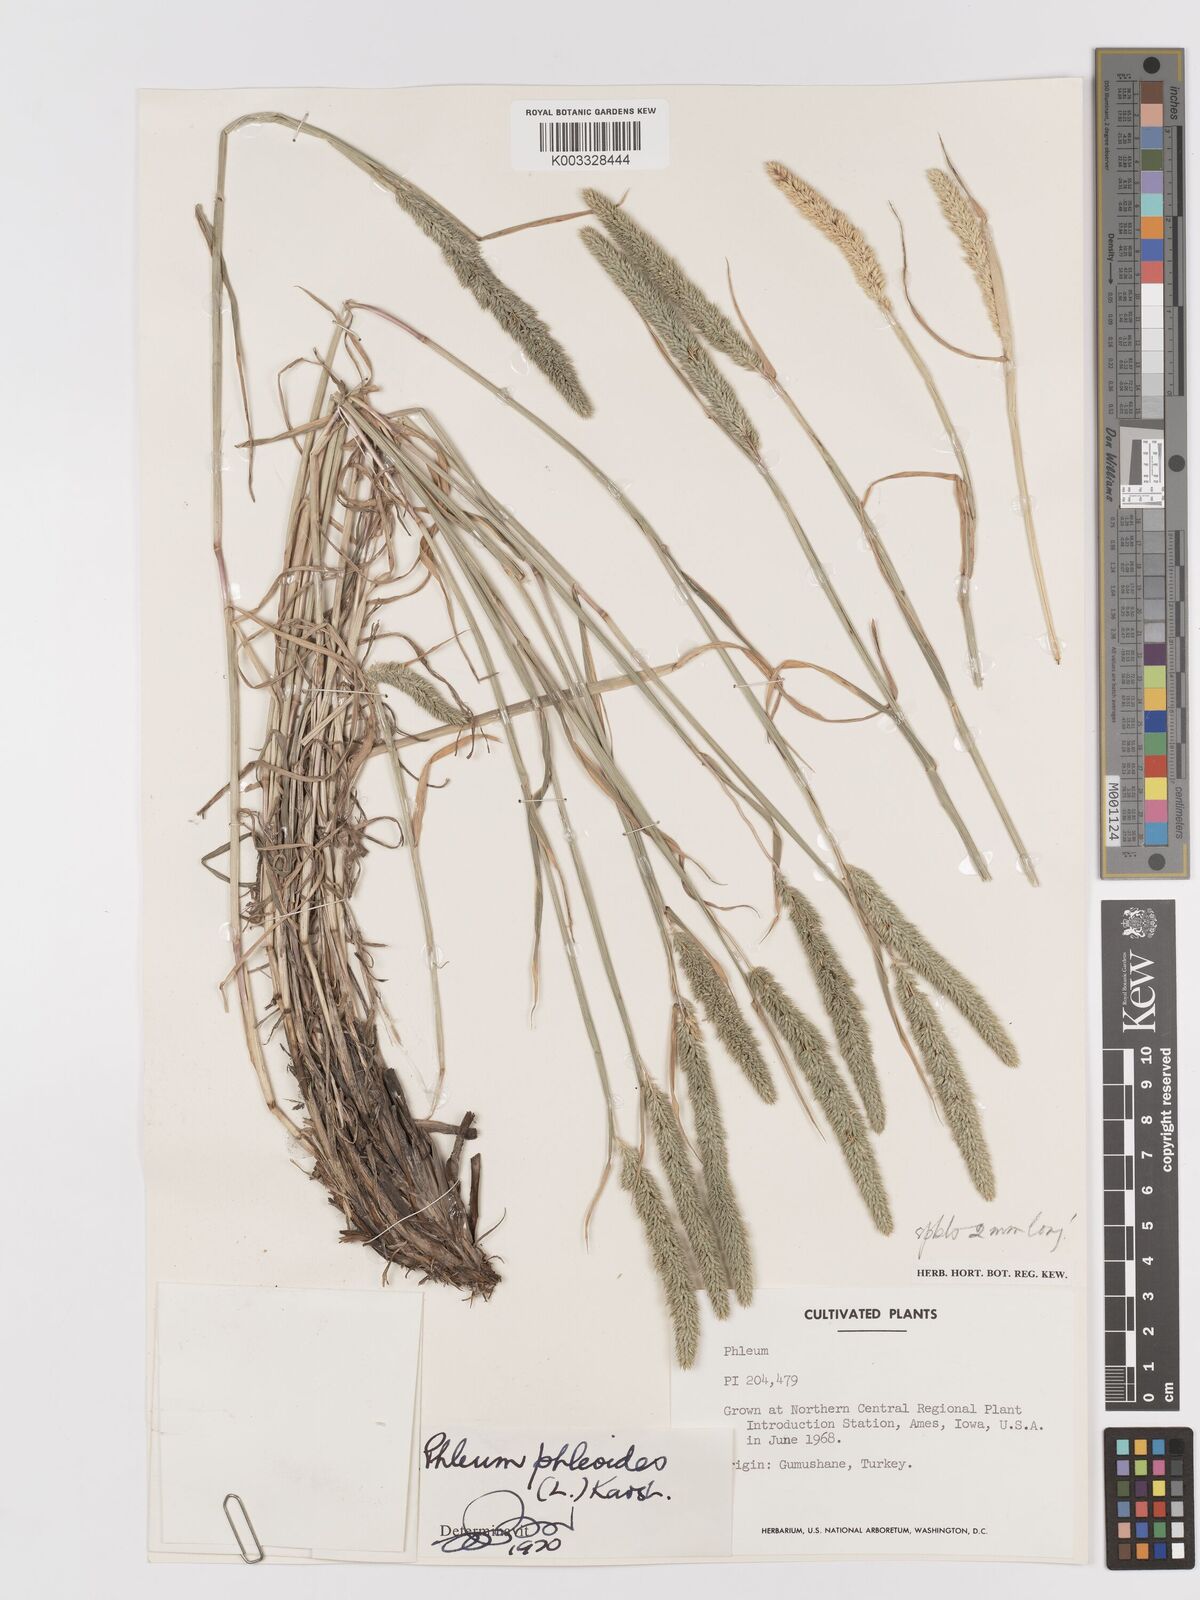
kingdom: Plantae
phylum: Tracheophyta
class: Liliopsida
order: Poales
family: Poaceae
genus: Phleum
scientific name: Phleum phleoides
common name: Purple-stem cat's-tail
